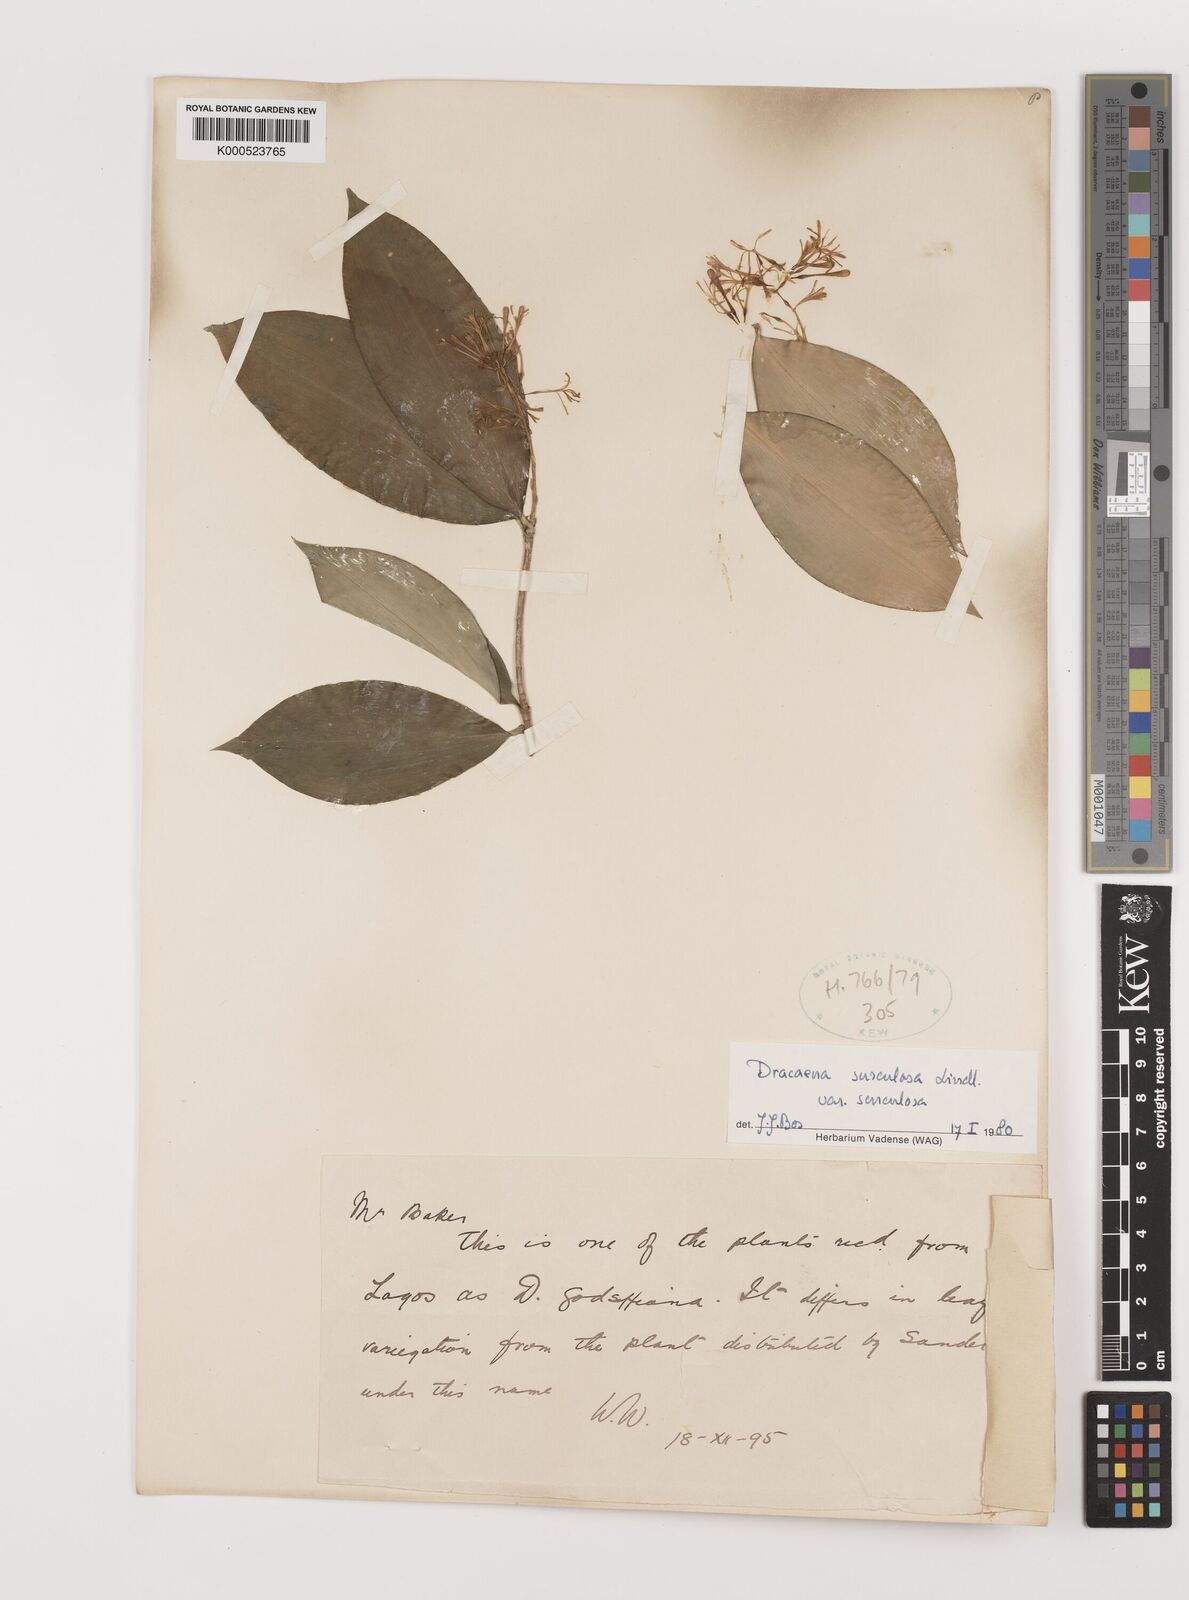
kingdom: Plantae
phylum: Tracheophyta
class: Liliopsida
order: Asparagales
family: Asparagaceae
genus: Dracaena
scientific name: Dracaena surculosa
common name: Spotted dracaena
